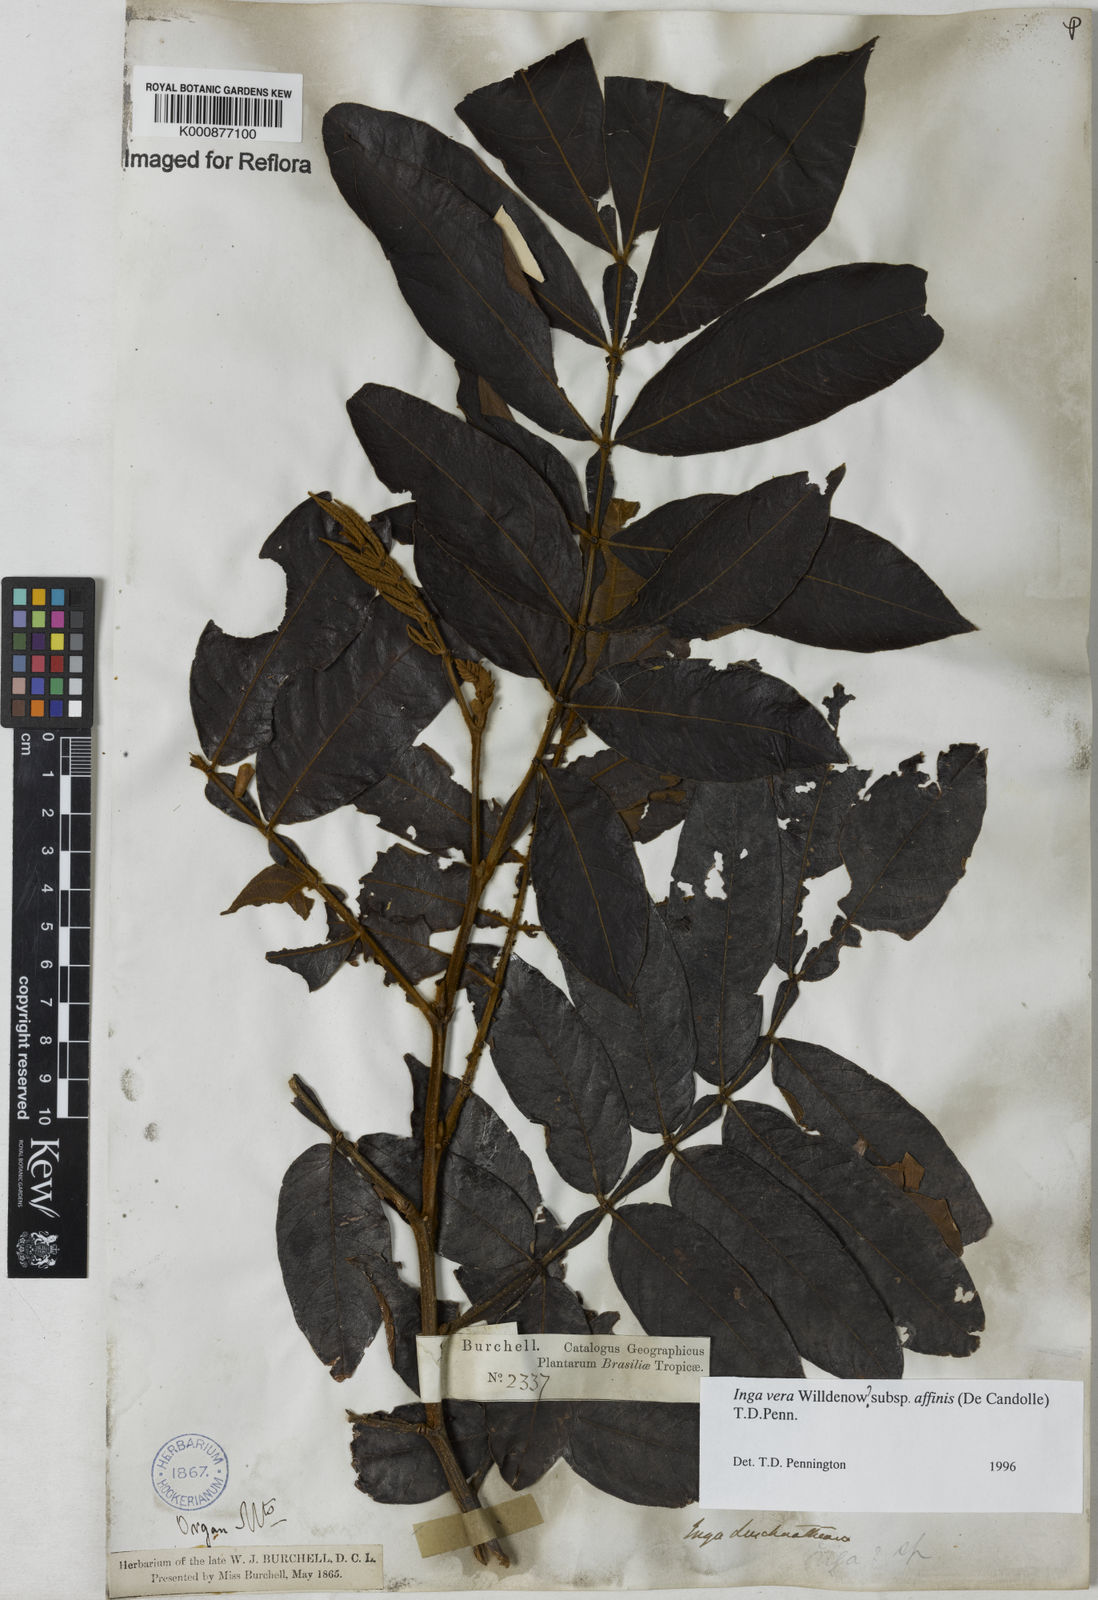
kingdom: Plantae
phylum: Tracheophyta
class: Magnoliopsida
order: Fabales
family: Fabaceae
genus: Inga
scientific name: Inga affinis
